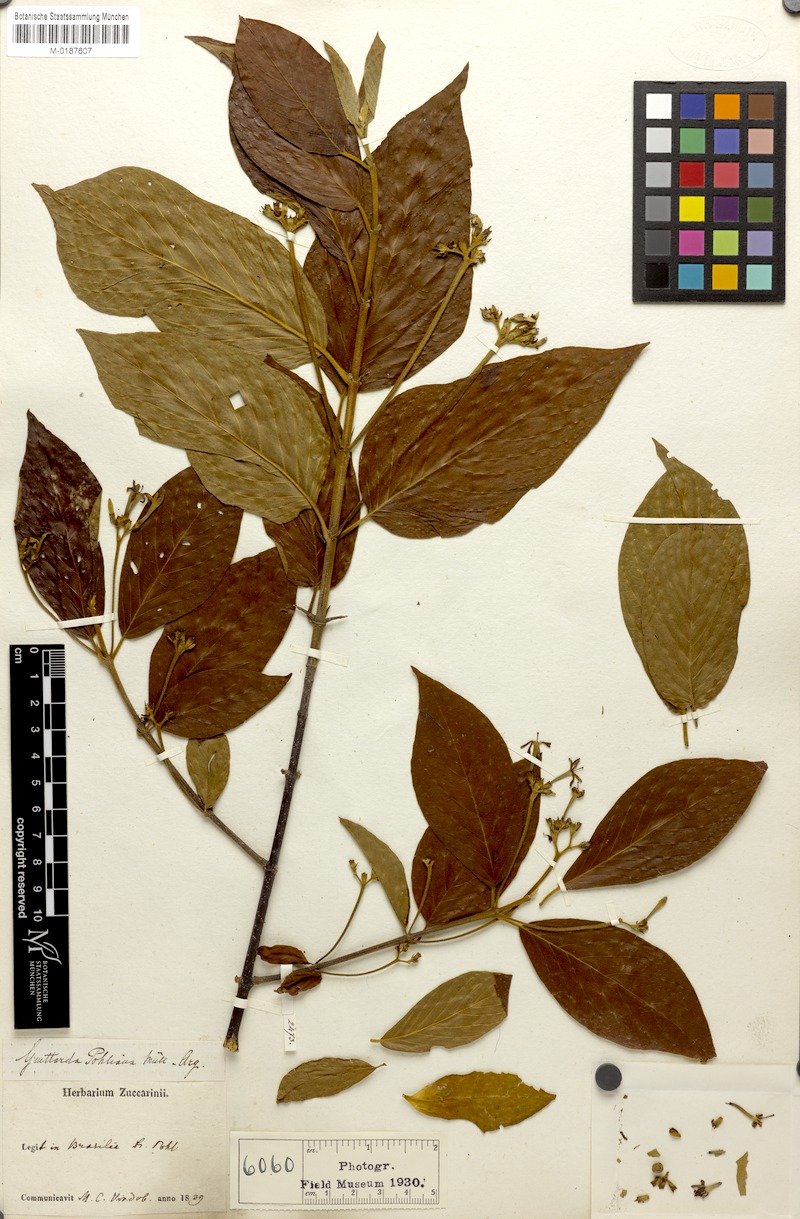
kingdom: Plantae
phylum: Tracheophyta
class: Magnoliopsida
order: Gentianales
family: Rubiaceae
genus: Guettarda
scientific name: Guettarda pohliana
